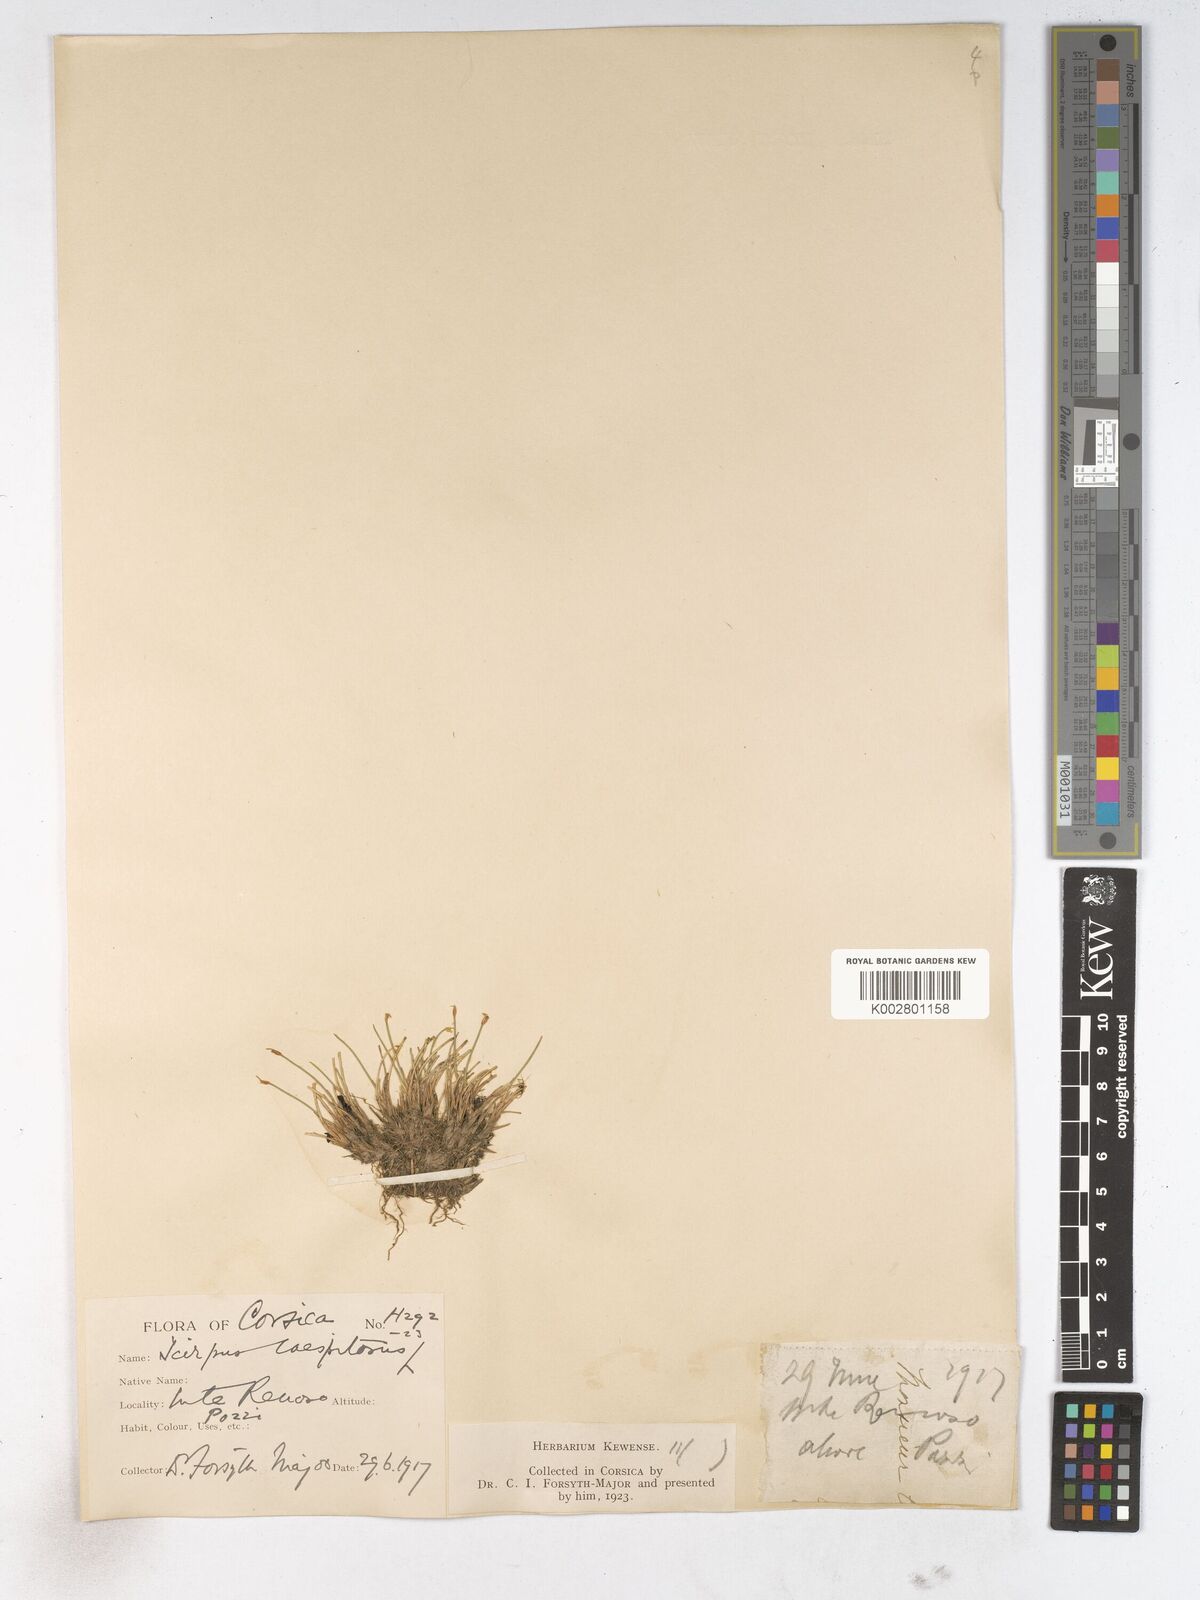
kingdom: Plantae
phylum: Tracheophyta
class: Liliopsida
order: Poales
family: Cyperaceae
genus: Trichophorum
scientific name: Trichophorum cespitosum
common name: Cespitose bulrush
